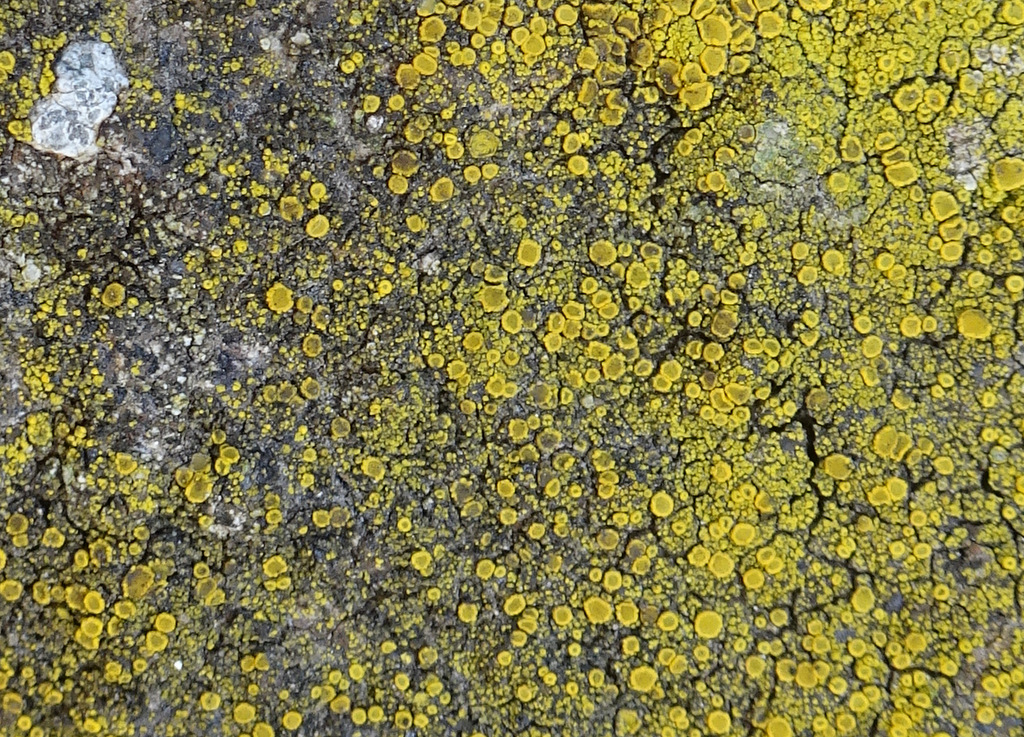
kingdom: Fungi
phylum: Ascomycota
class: Candelariomycetes
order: Candelariales
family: Candelariaceae
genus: Candelariella
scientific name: Candelariella vitellina
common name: almindelig æggeblommelav
